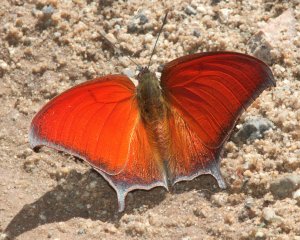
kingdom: Animalia
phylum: Arthropoda
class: Insecta
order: Lepidoptera
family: Nymphalidae
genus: Anaea
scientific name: Anaea andria
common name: Goatweed Leafwing
